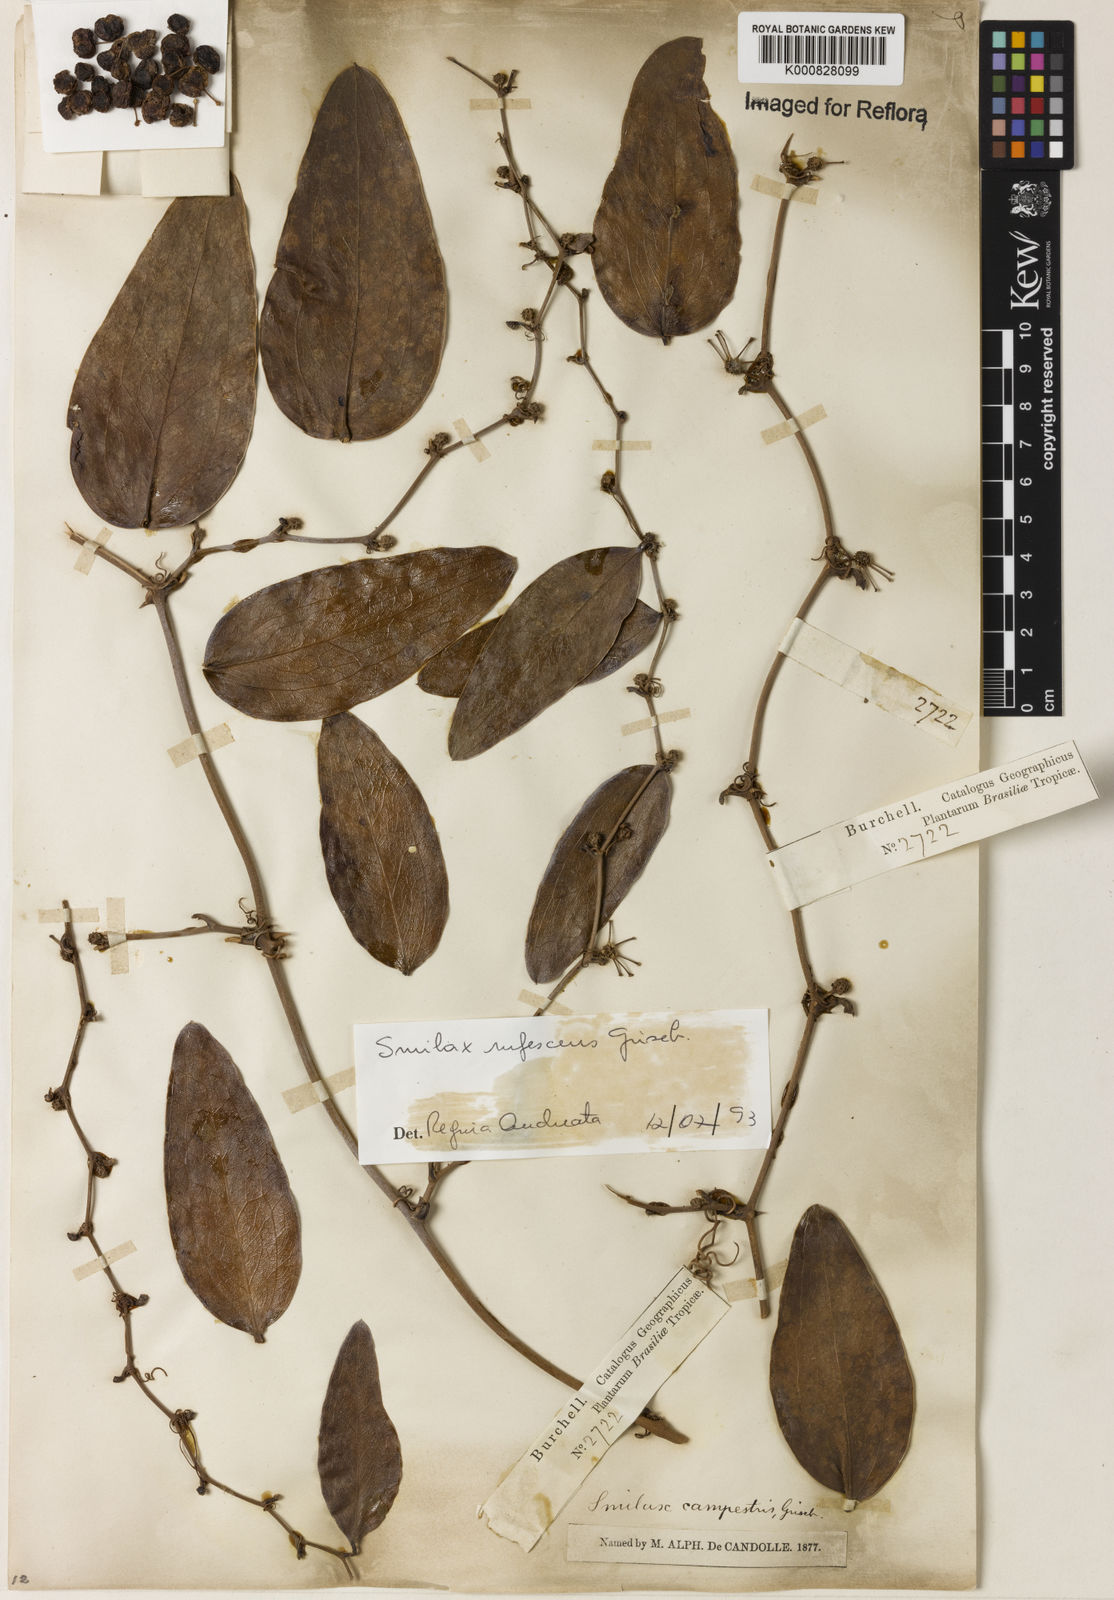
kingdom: Plantae
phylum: Tracheophyta
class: Liliopsida
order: Liliales
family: Smilacaceae
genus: Smilax
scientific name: Smilax rufescens
